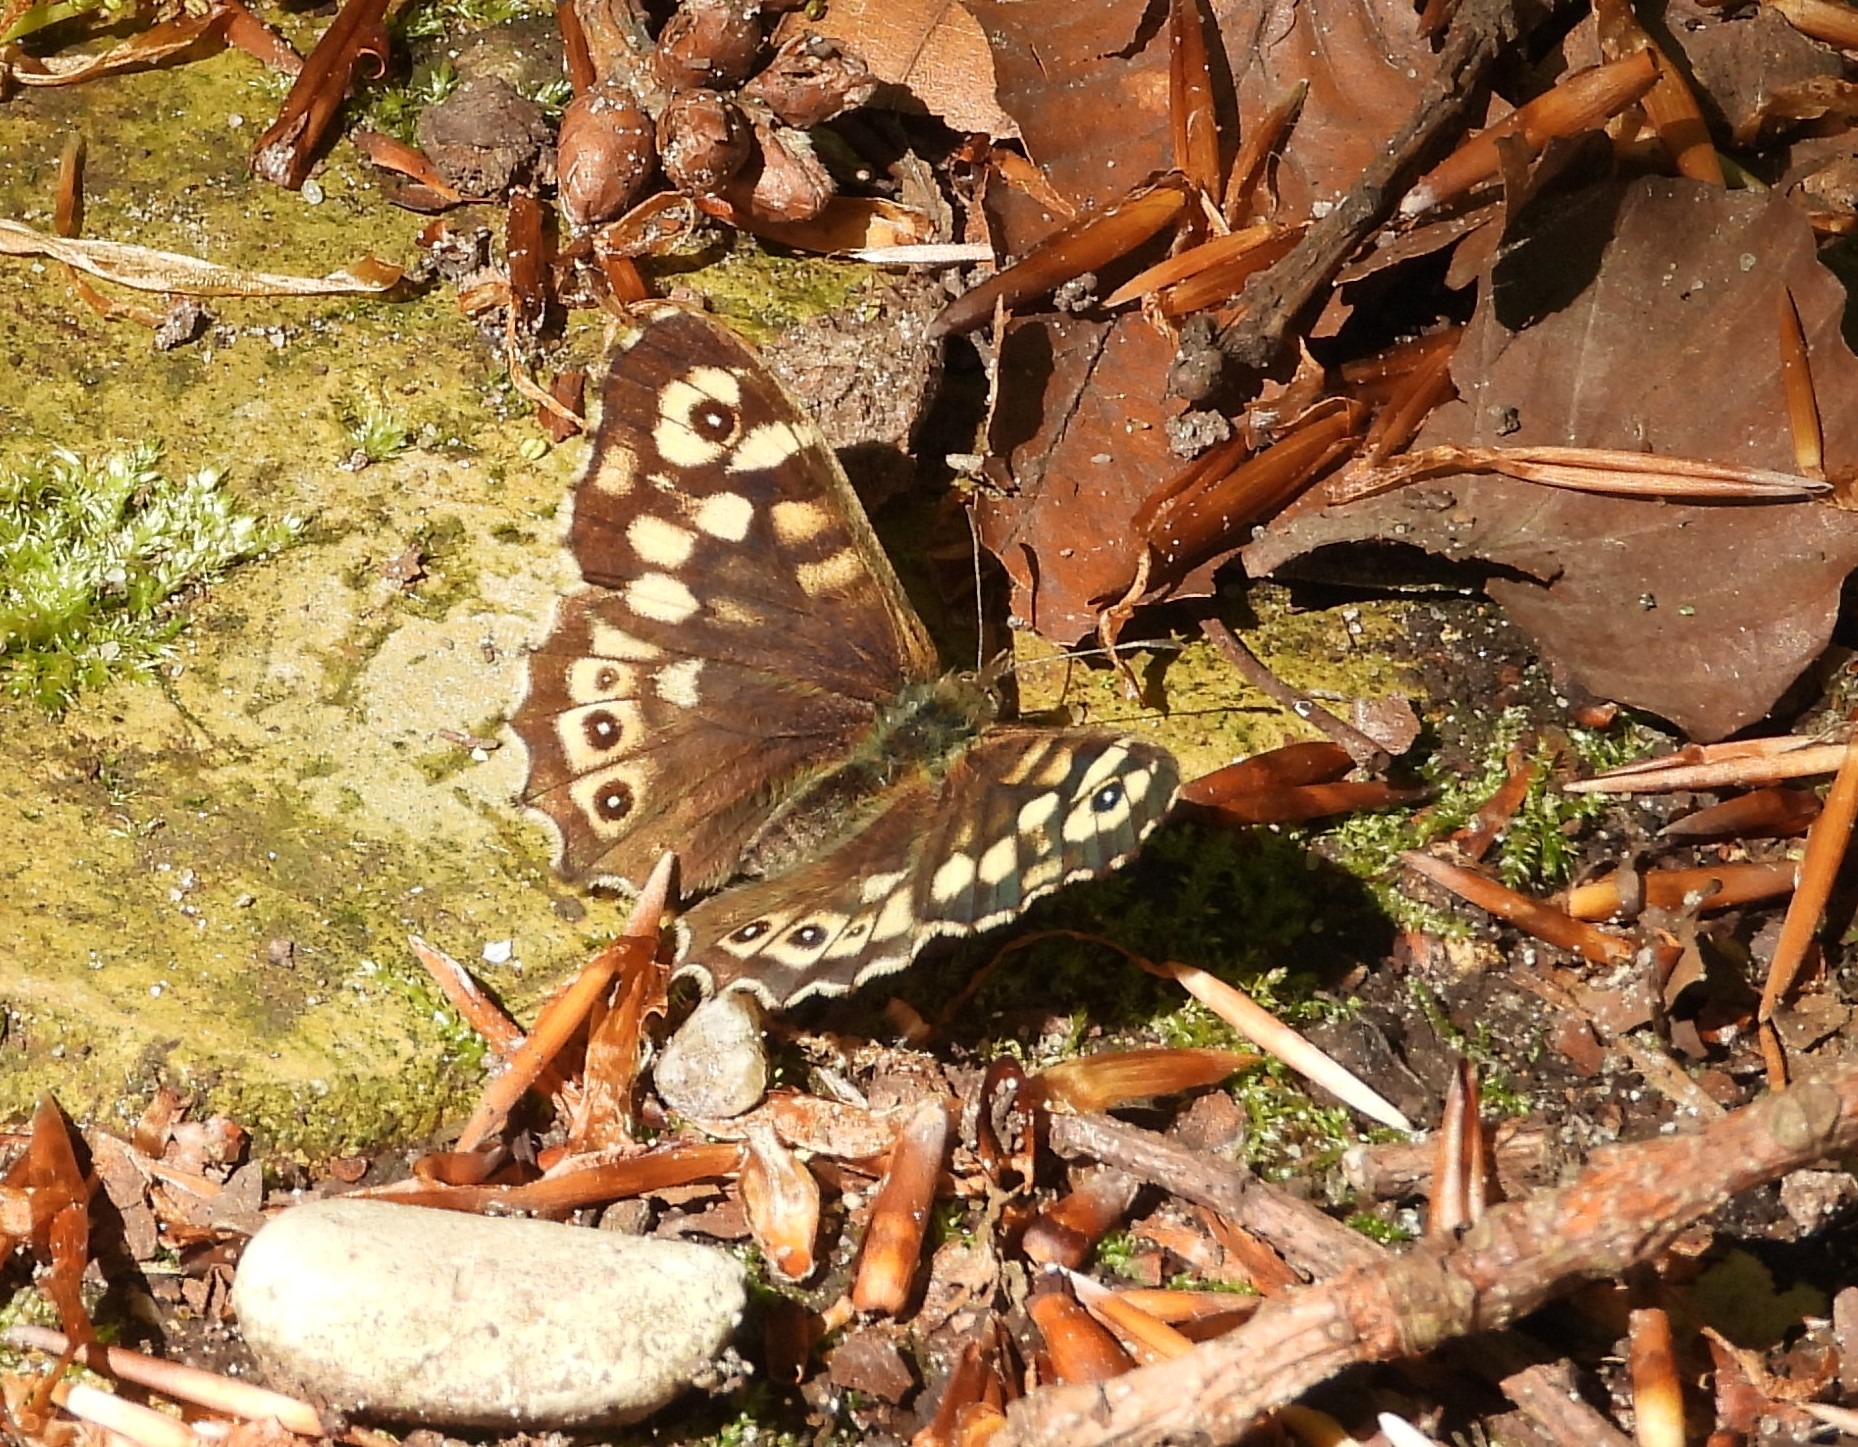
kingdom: Animalia
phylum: Arthropoda
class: Insecta
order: Lepidoptera
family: Nymphalidae
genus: Pararge
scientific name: Pararge aegeria
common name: Skovrandøje
